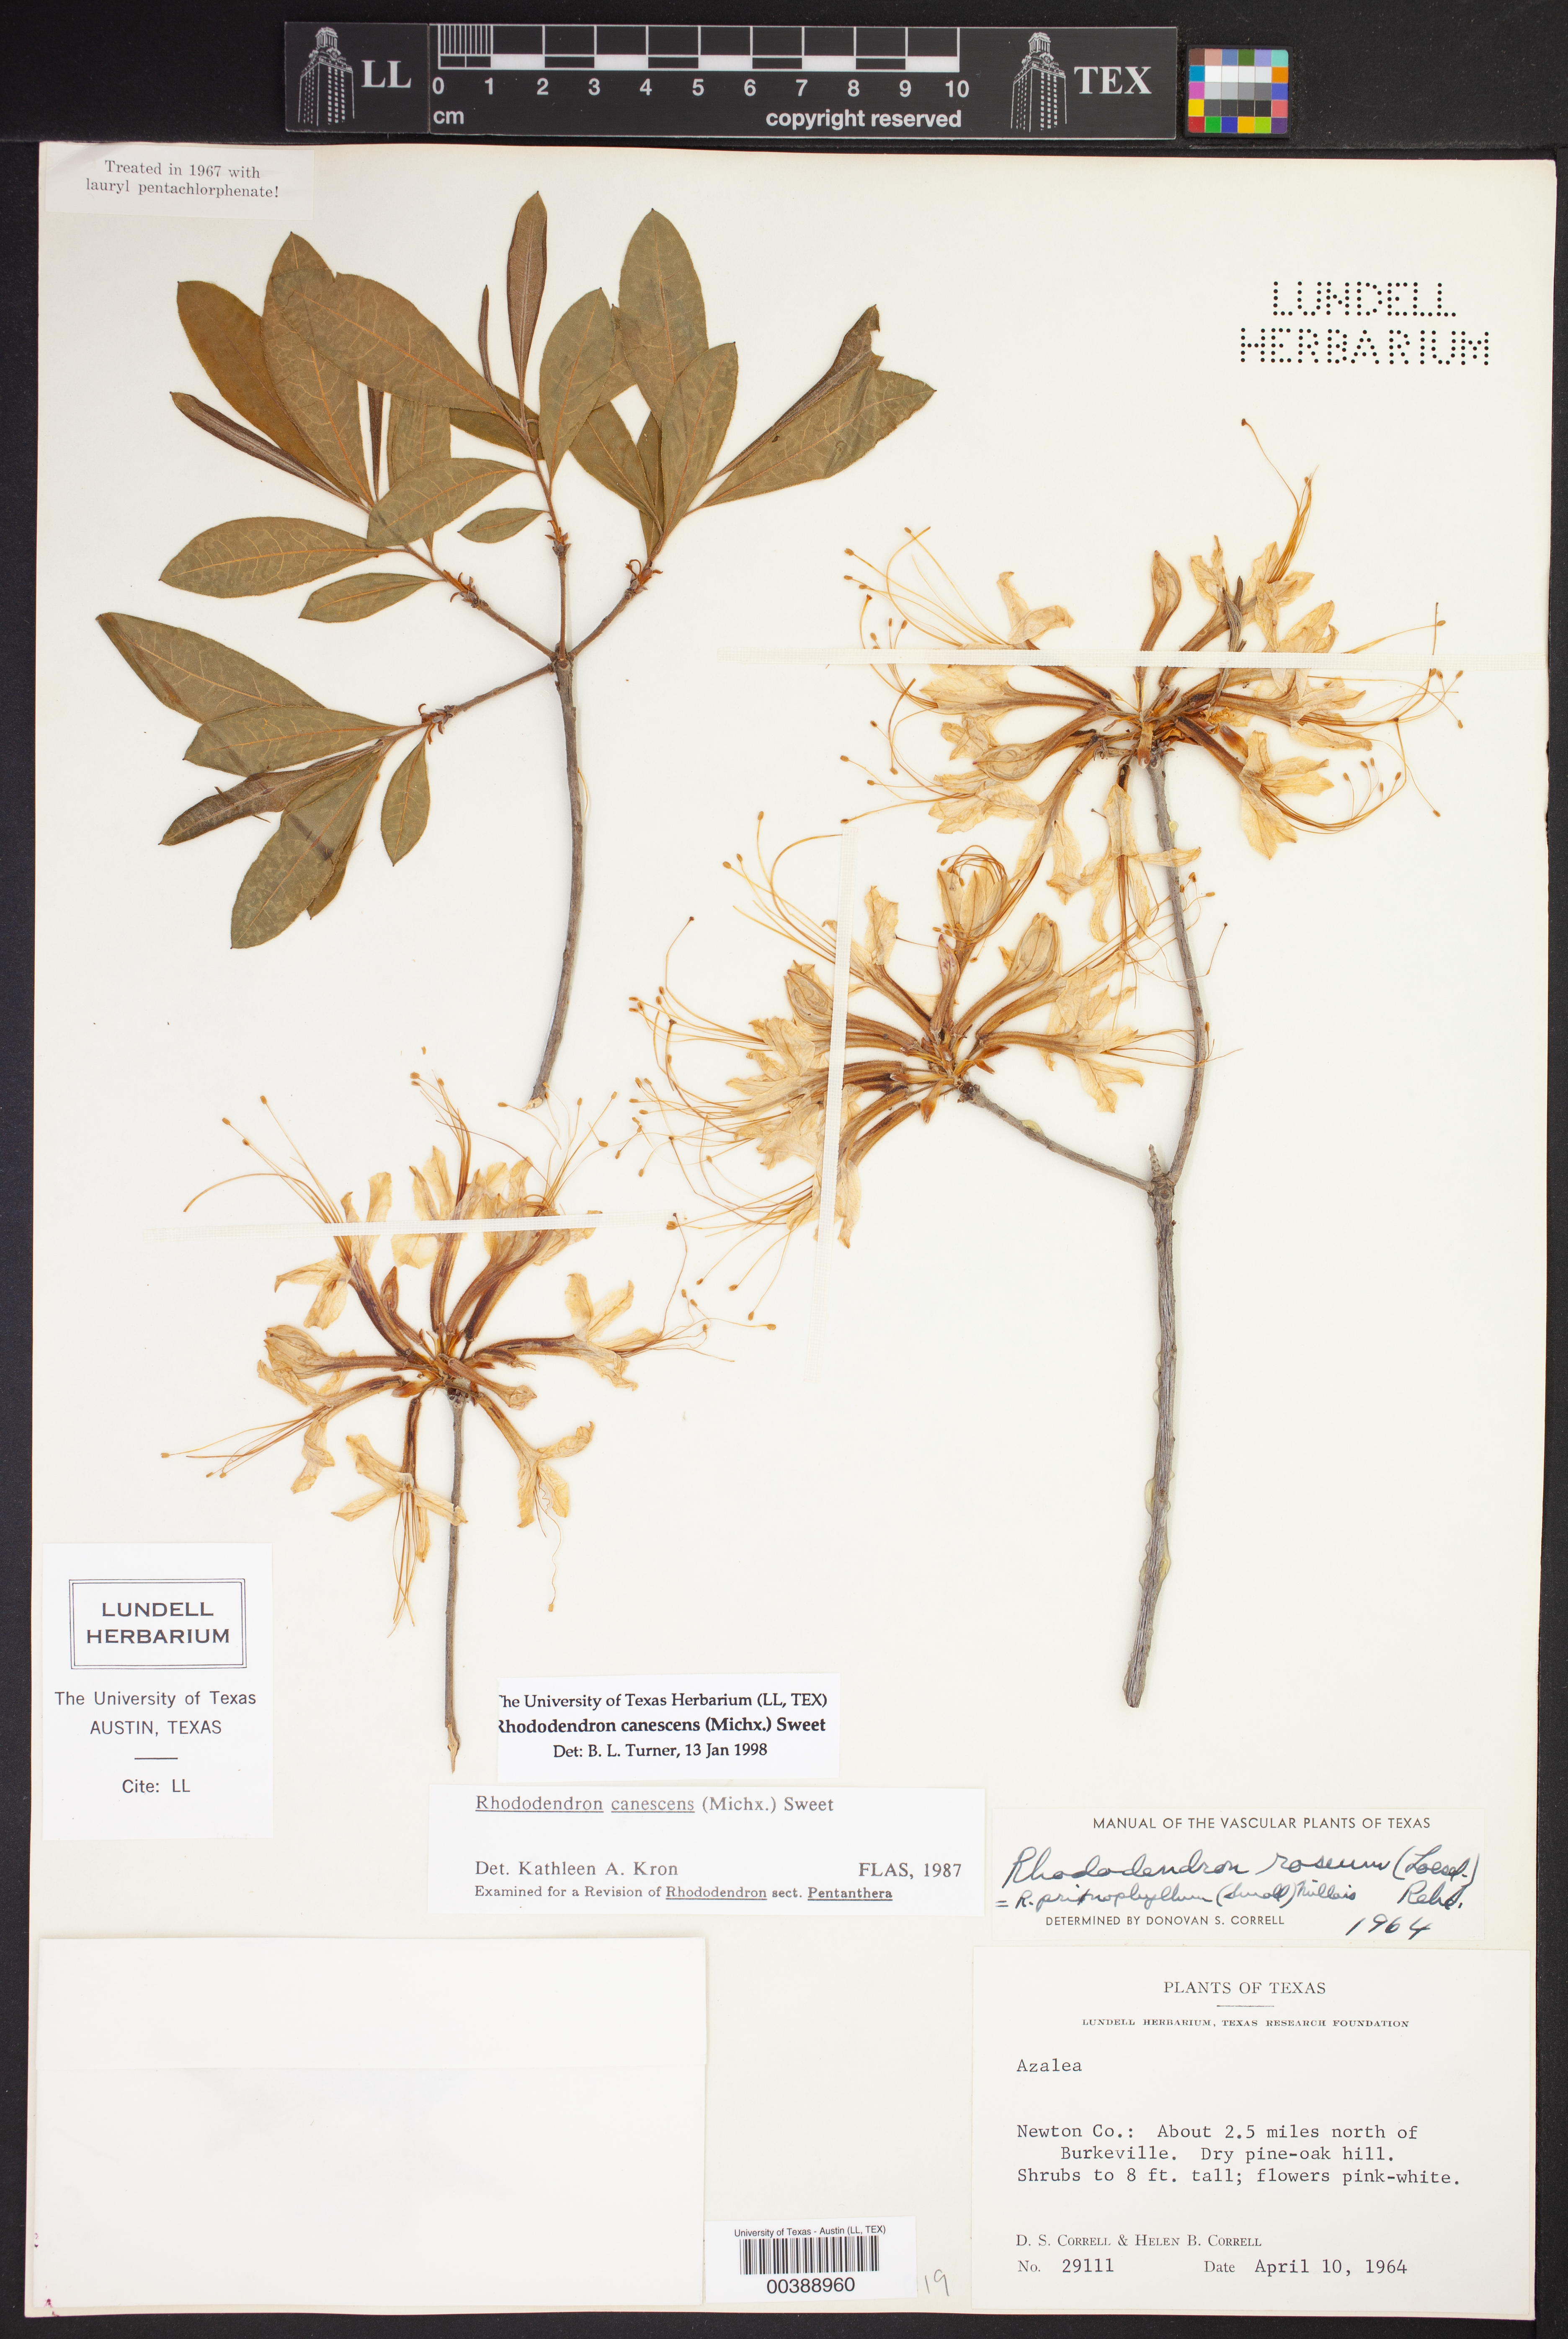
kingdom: Plantae
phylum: Tracheophyta
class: Magnoliopsida
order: Ericales
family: Ericaceae
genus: Rhododendron
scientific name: Rhododendron canescens
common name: Mountain azalea
